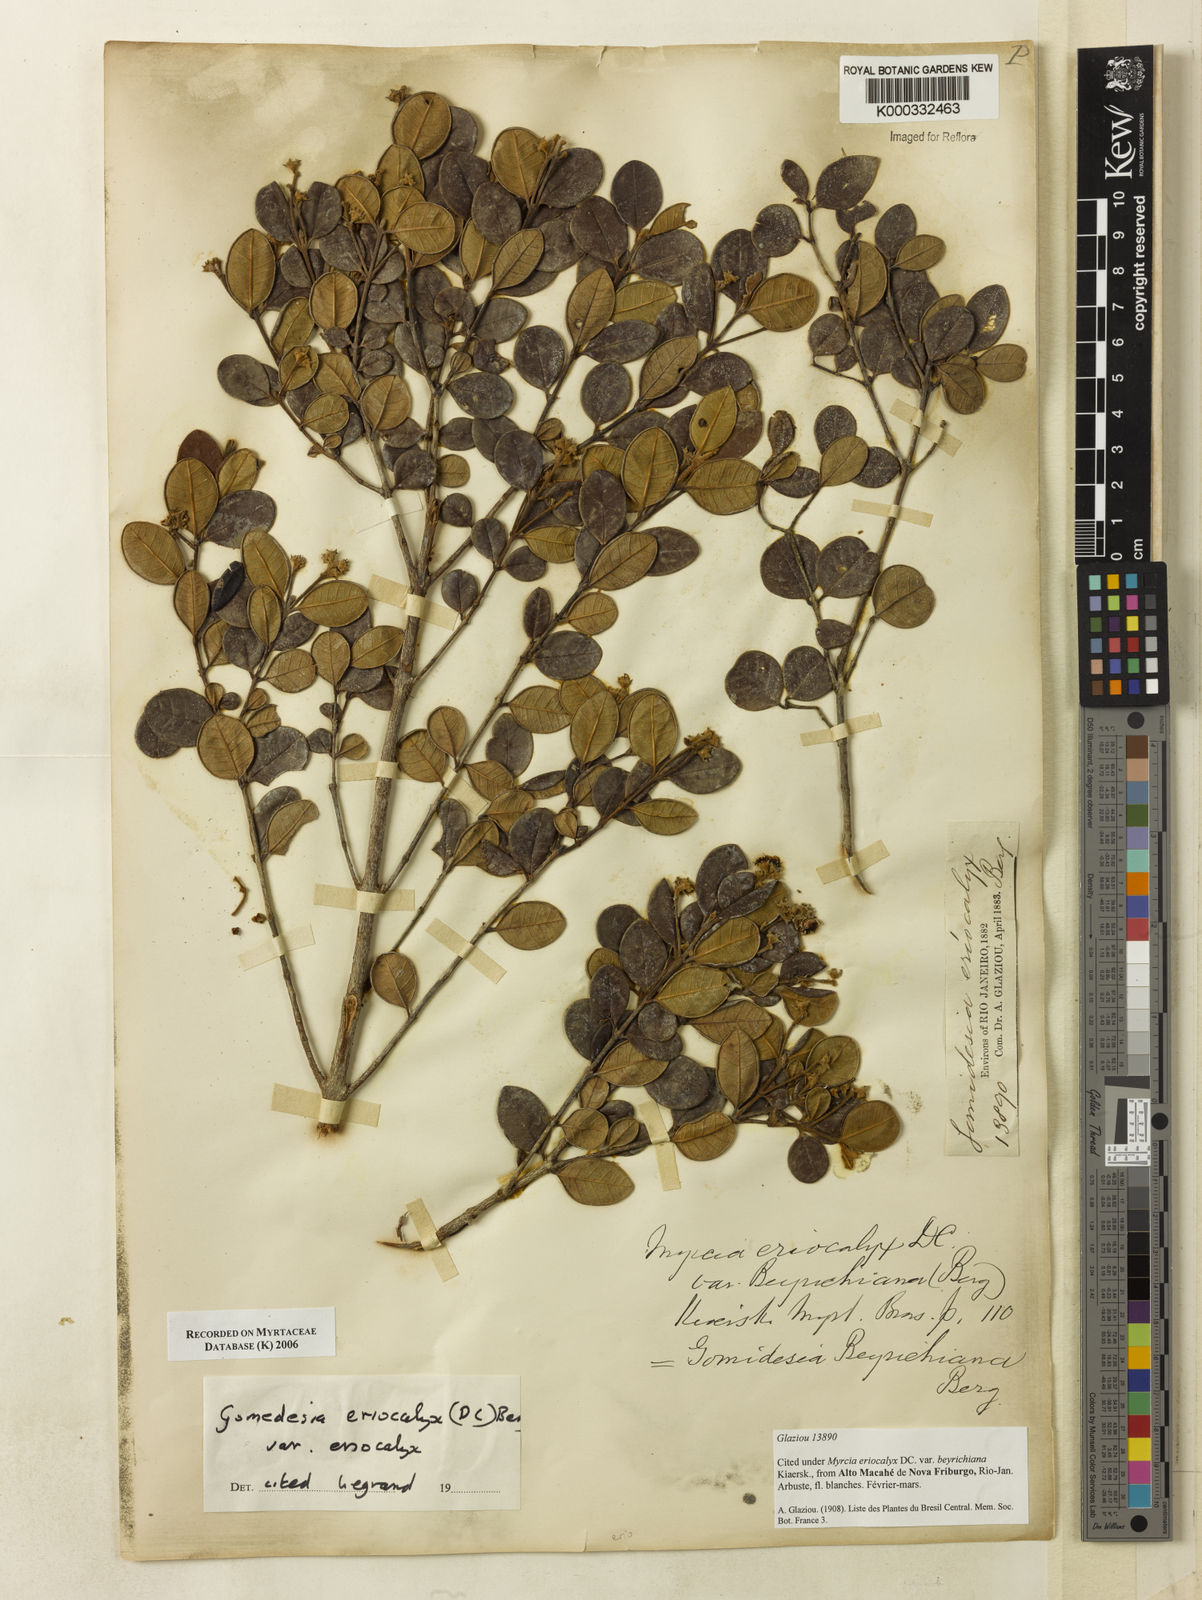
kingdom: Plantae
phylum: Tracheophyta
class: Magnoliopsida
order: Myrtales
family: Myrtaceae
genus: Myrcia
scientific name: Myrcia eriocalyx
